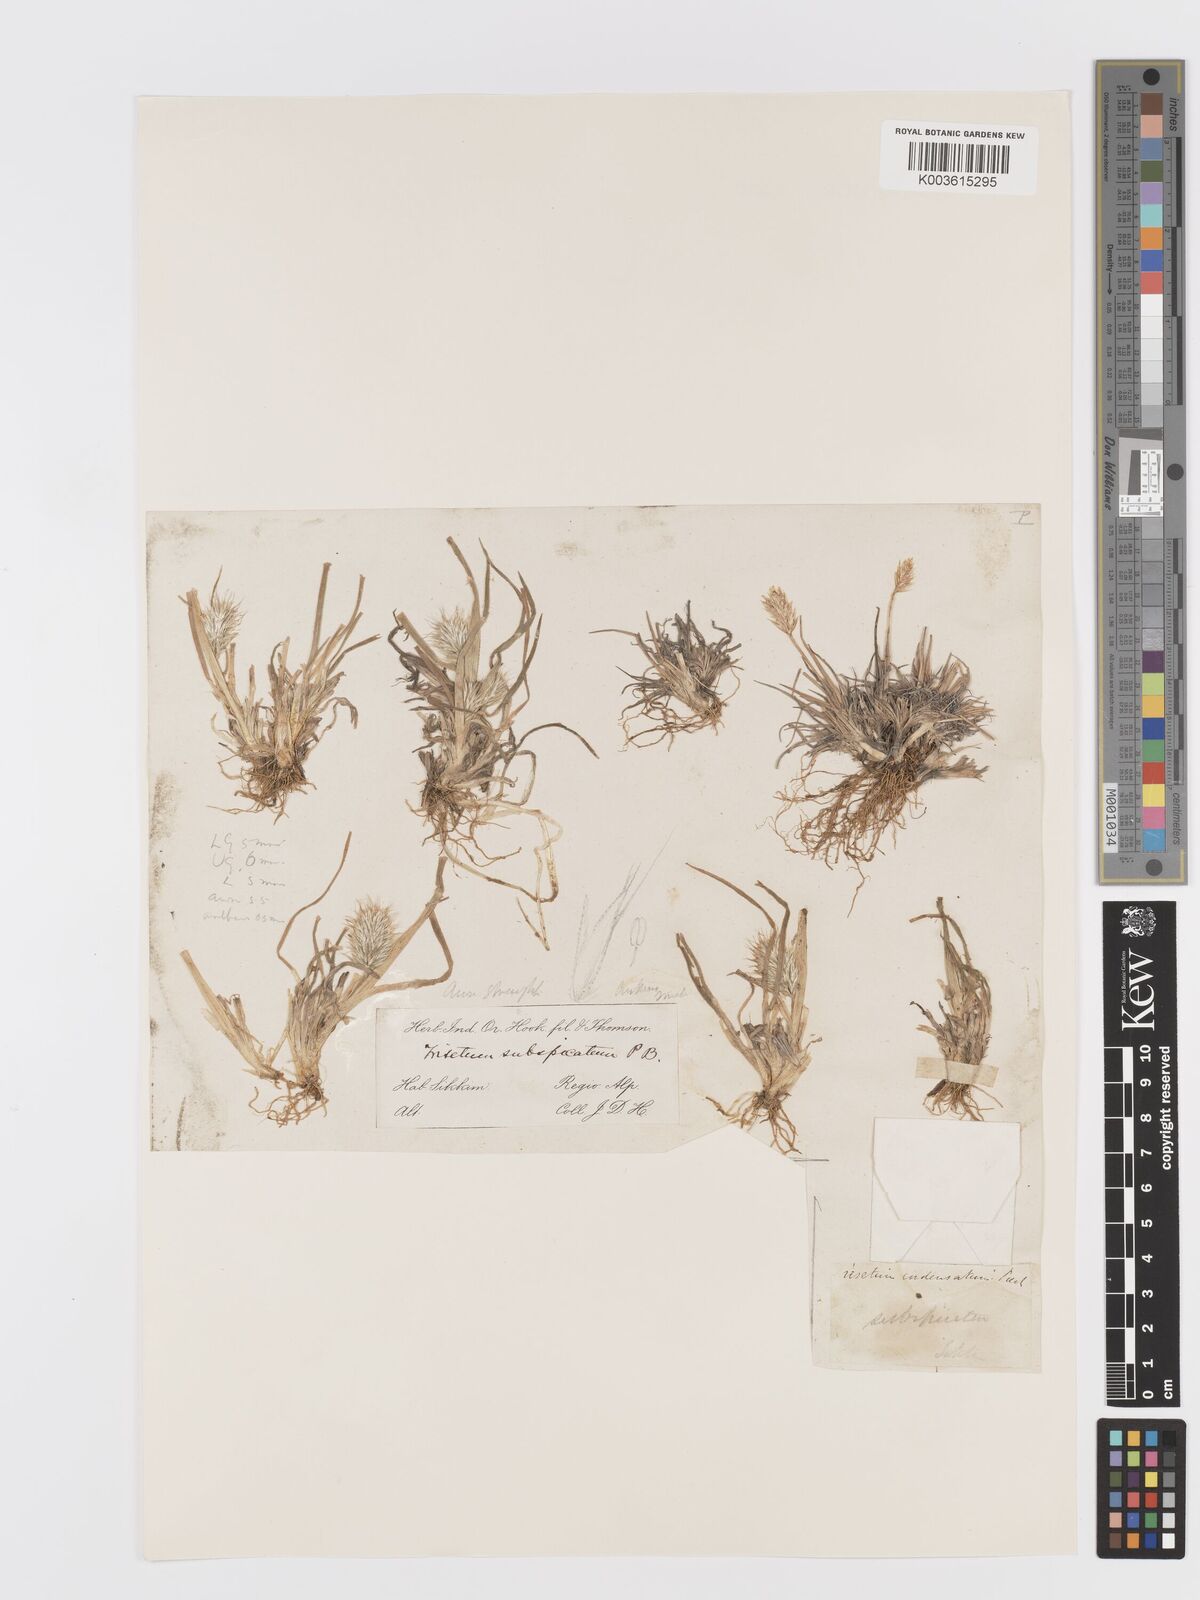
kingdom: Plantae
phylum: Tracheophyta
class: Liliopsida
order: Poales
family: Poaceae
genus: Koeleria
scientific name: Koeleria spicata
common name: Mountain trisetum
